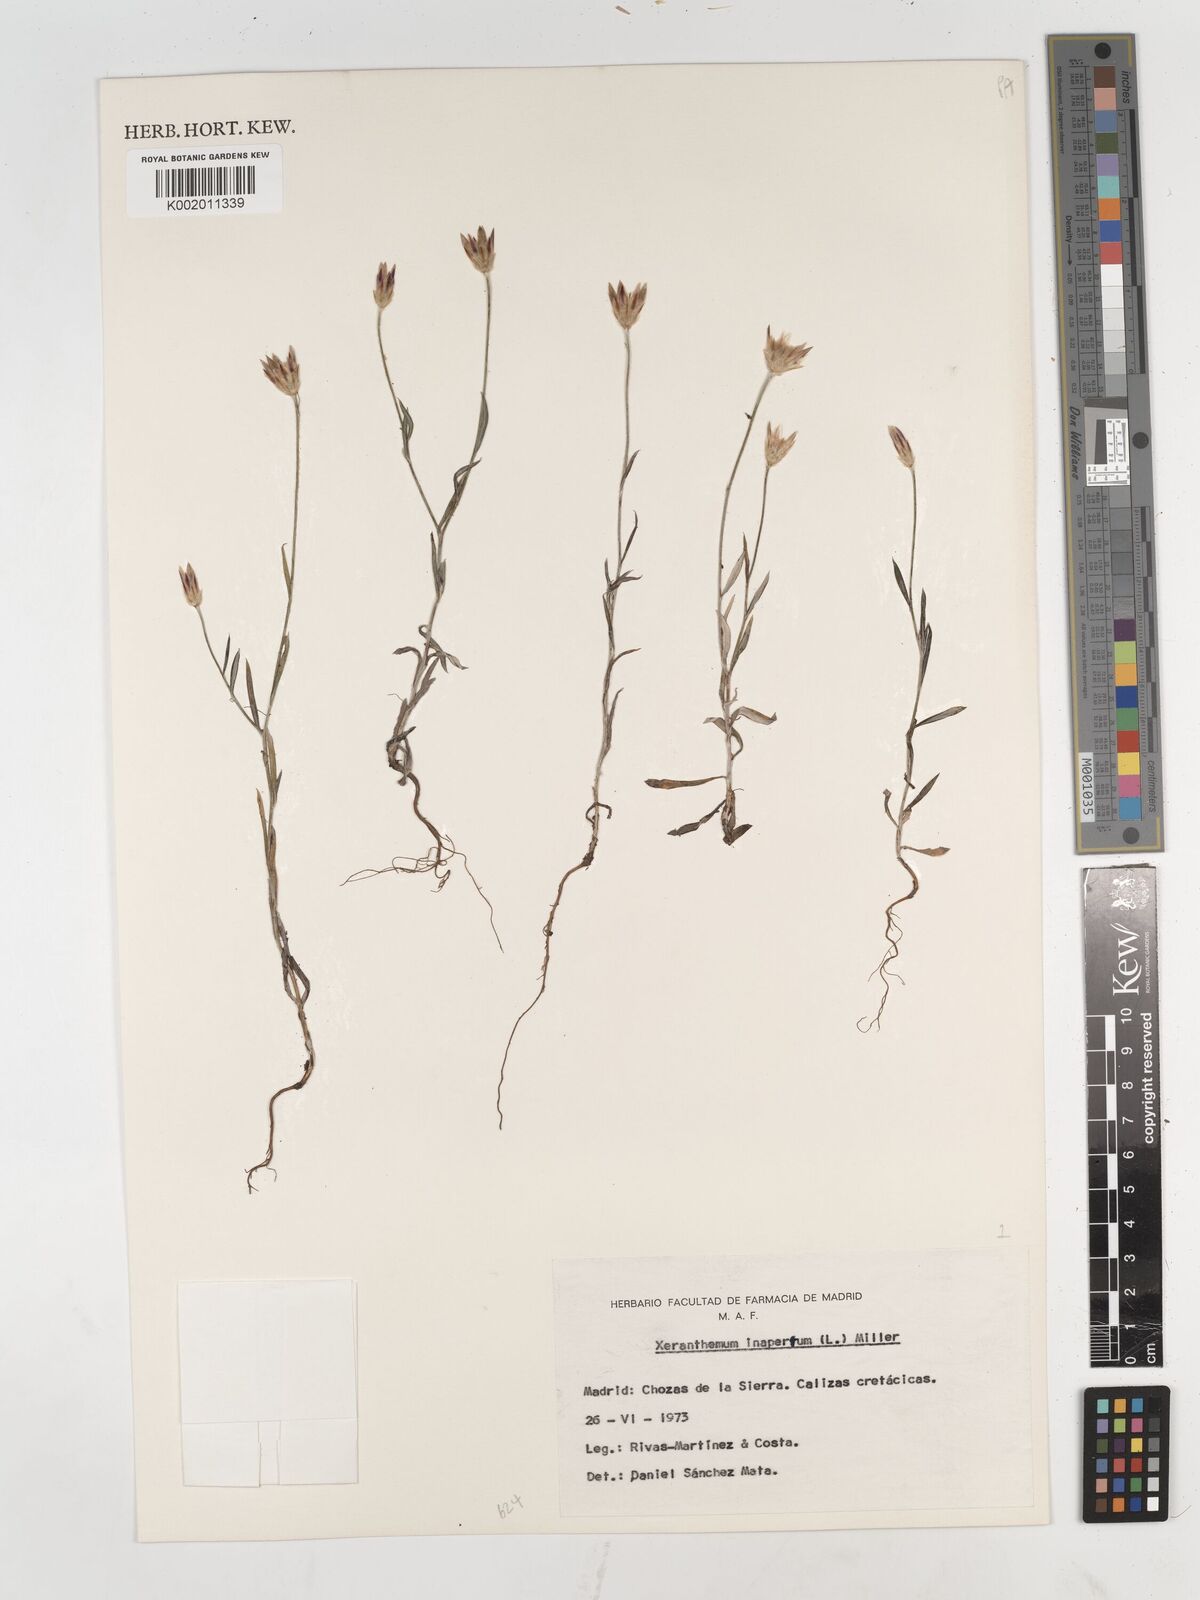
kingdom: Plantae
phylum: Tracheophyta
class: Magnoliopsida
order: Asterales
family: Asteraceae
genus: Xeranthemum
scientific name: Xeranthemum inapertum
